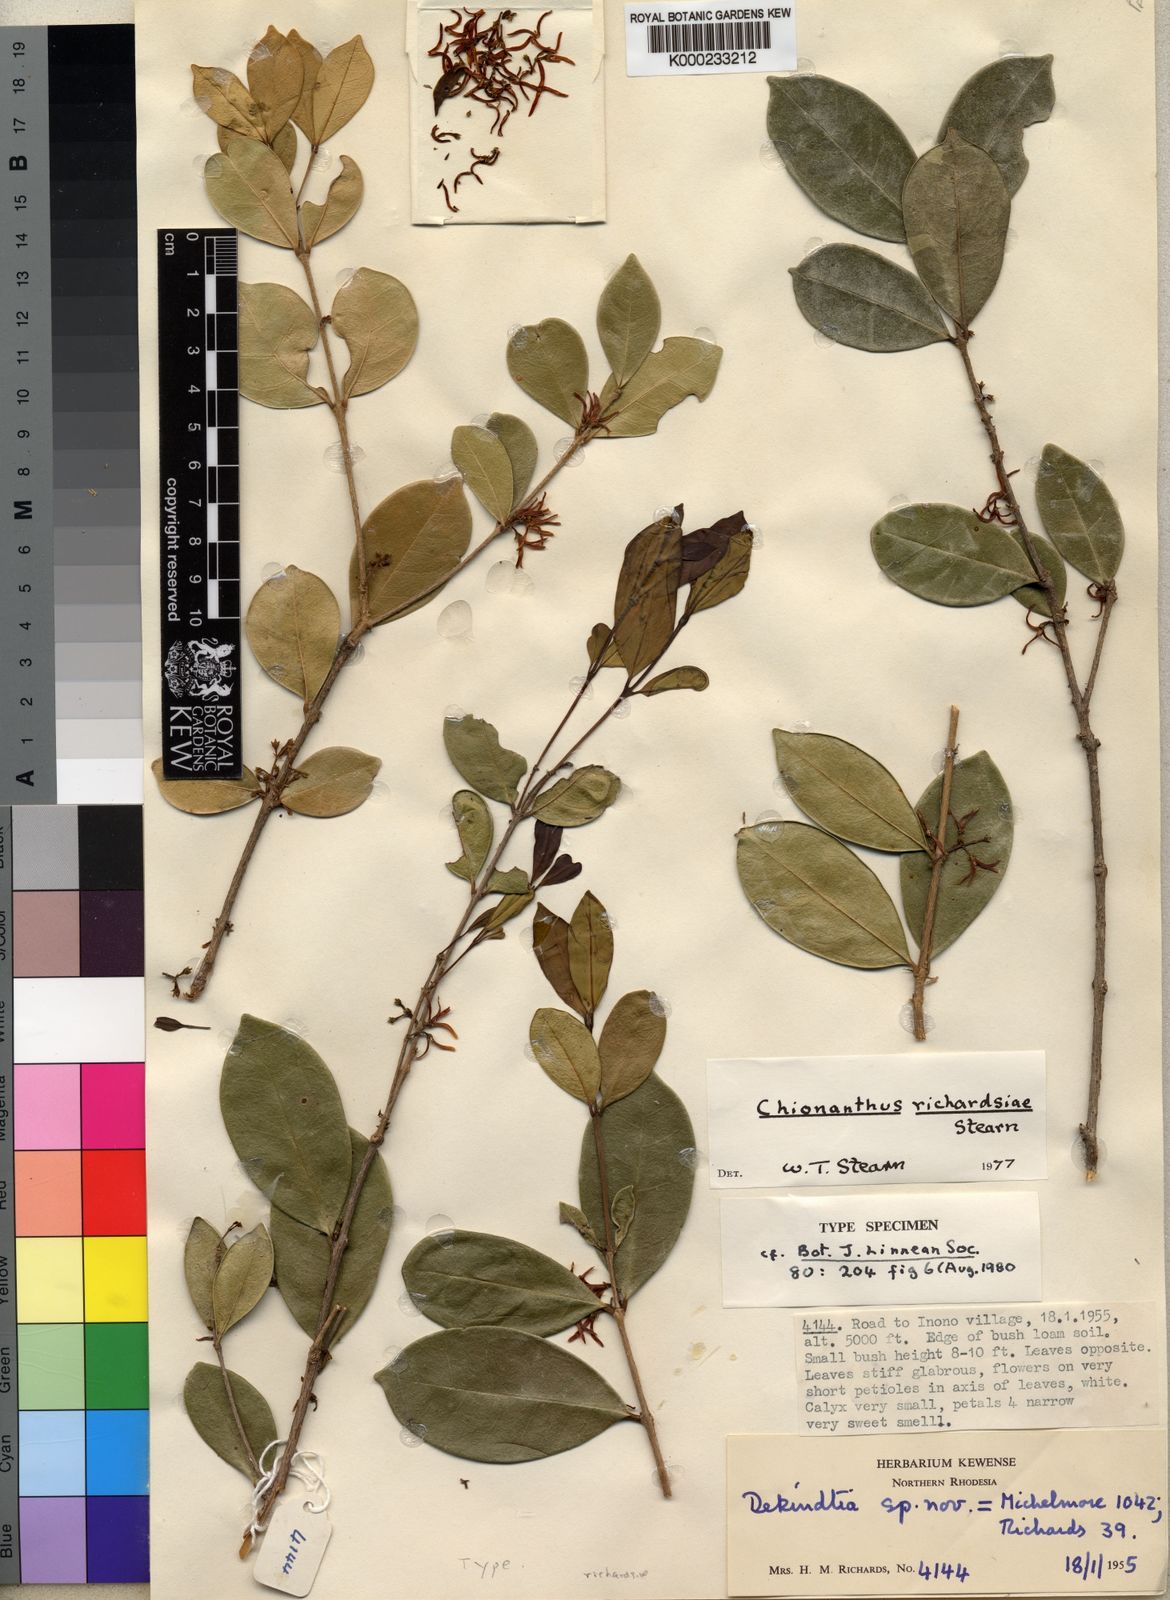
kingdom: Plantae
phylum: Tracheophyta
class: Magnoliopsida
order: Lamiales
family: Oleaceae
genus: Noronhia
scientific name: Noronhia richardsiae
